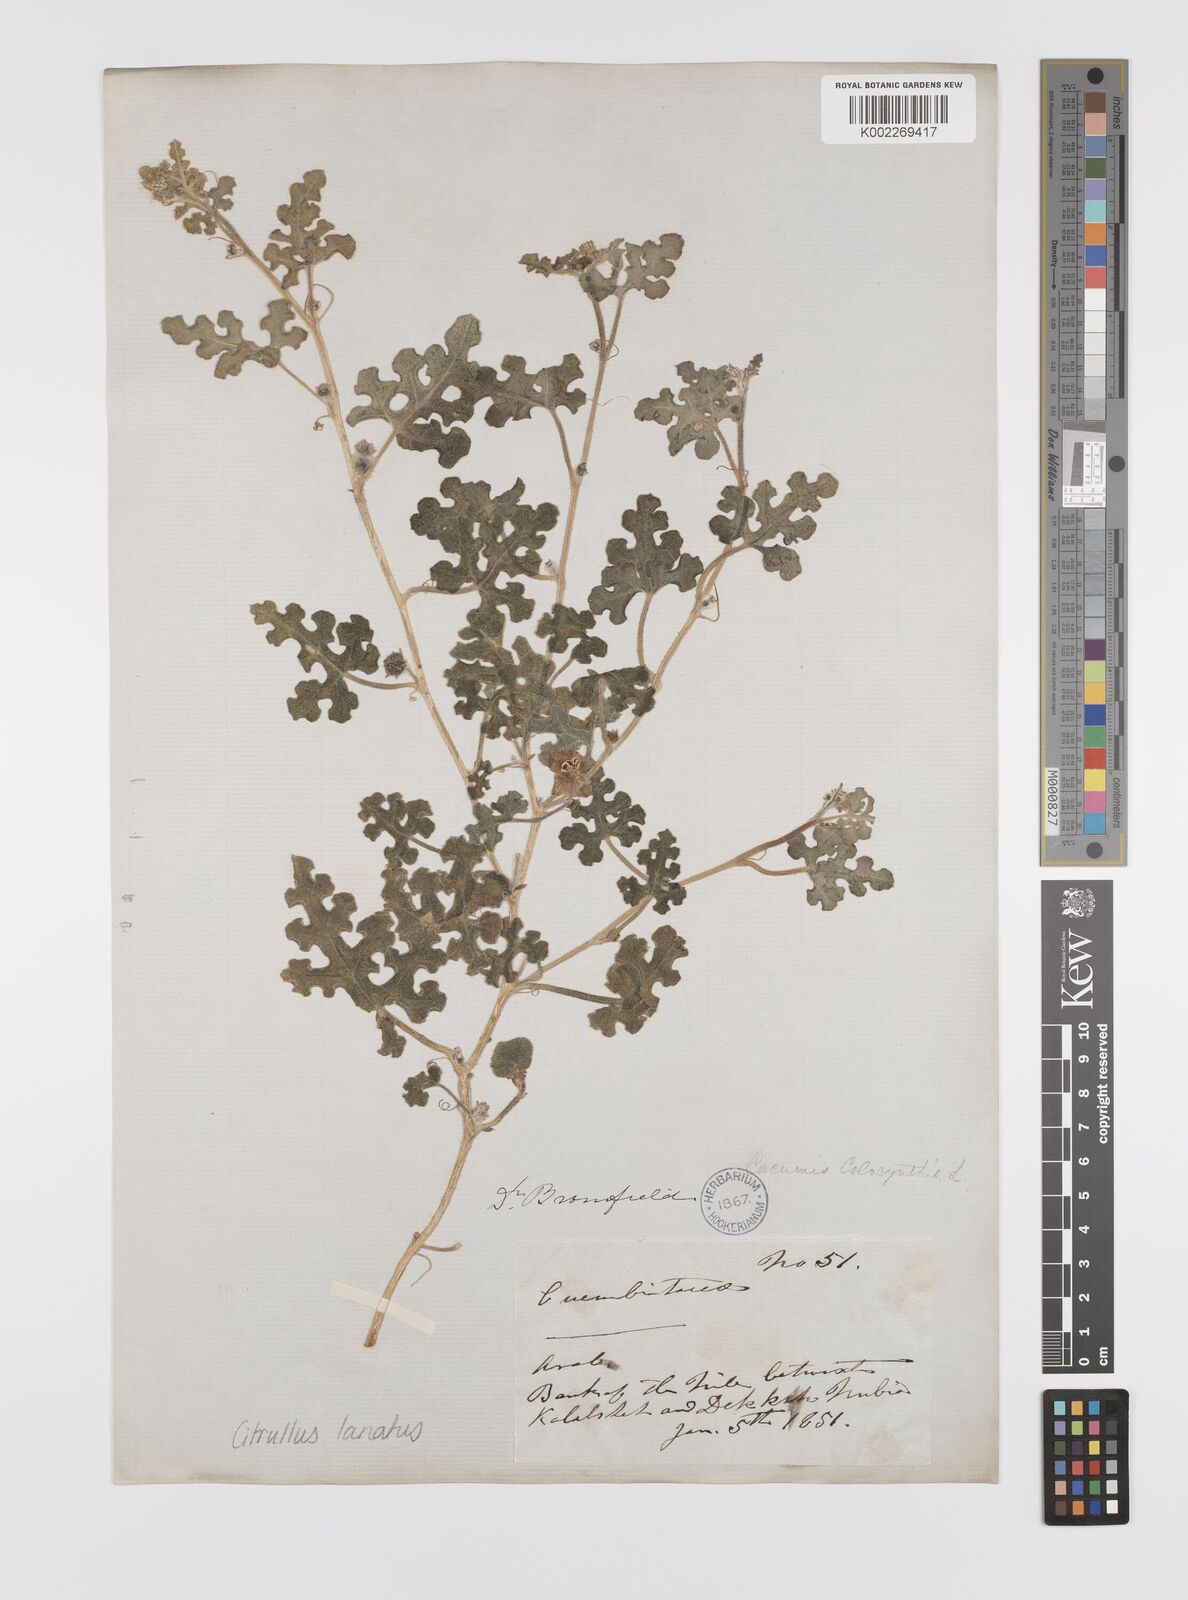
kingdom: Plantae
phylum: Tracheophyta
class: Magnoliopsida
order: Cucurbitales
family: Cucurbitaceae
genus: Citrullus
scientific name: Citrullus lanatus
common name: Watermelon
